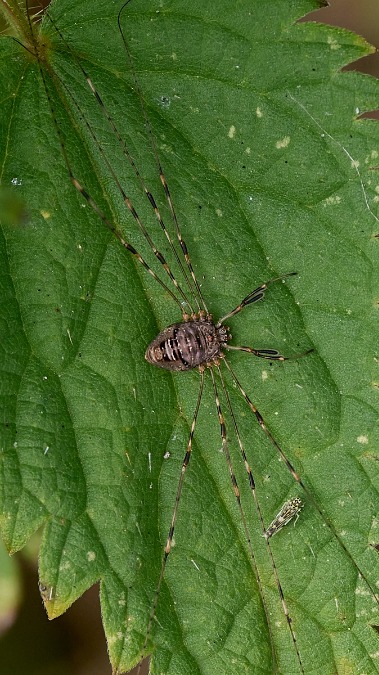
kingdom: Animalia
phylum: Arthropoda
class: Arachnida
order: Opiliones
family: Phalangiidae
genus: Dicranopalpus
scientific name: Dicranopalpus ramosus
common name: Gaffelmejer
